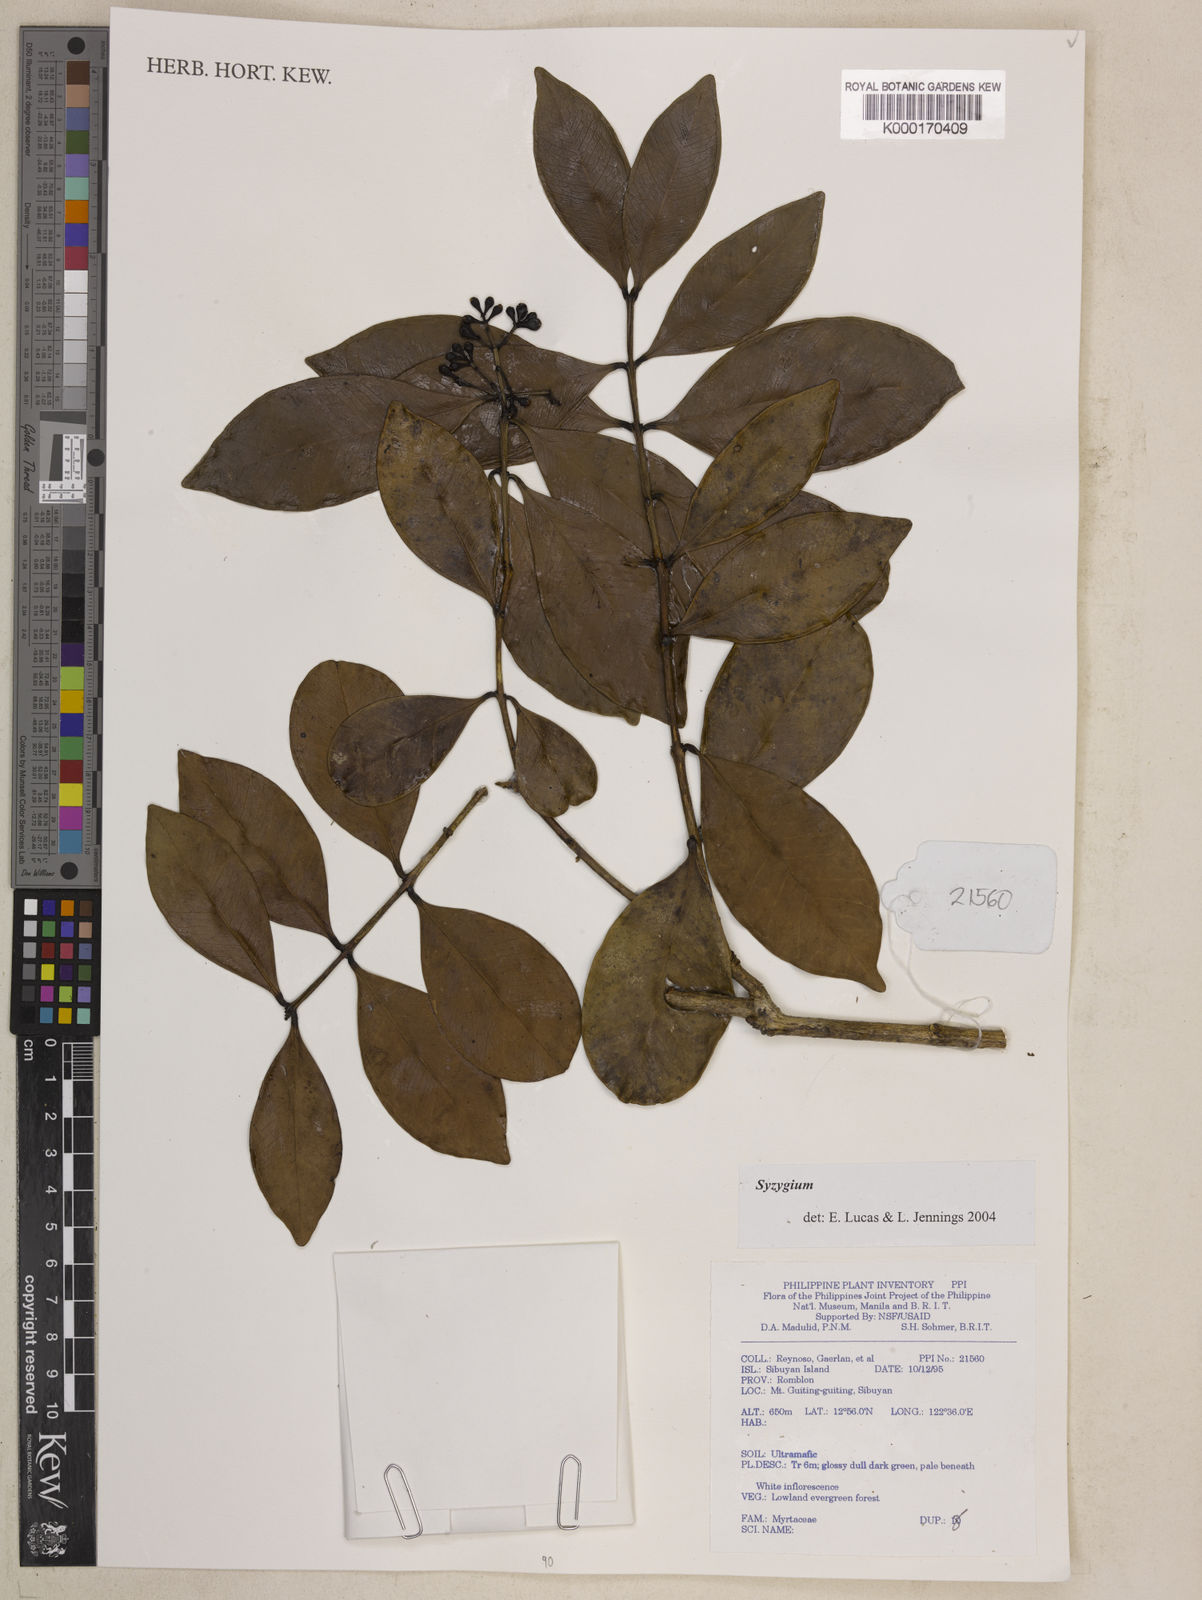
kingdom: Plantae
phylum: Tracheophyta
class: Magnoliopsida
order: Myrtales
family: Myrtaceae
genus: Syzygium
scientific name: Syzygium
